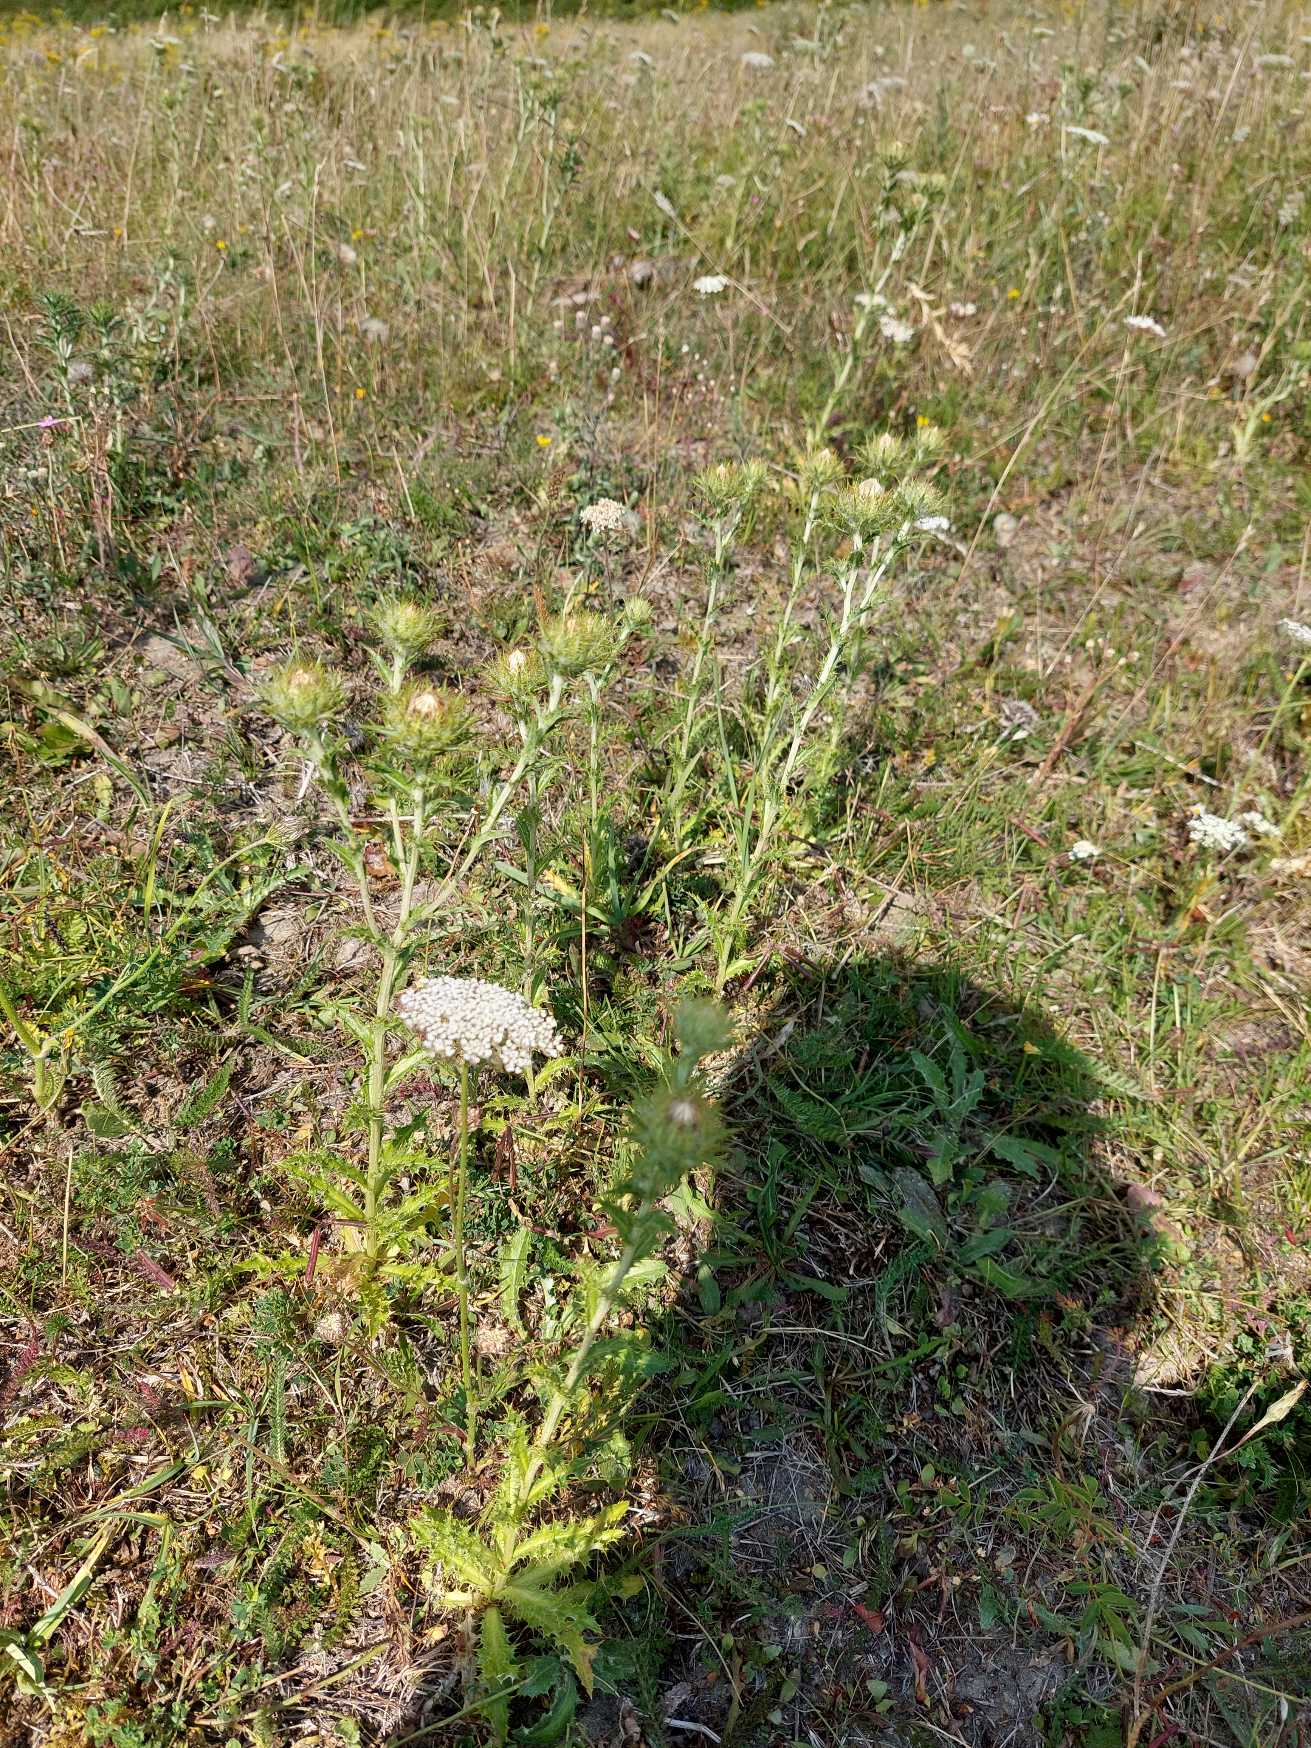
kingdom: Plantae
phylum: Tracheophyta
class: Magnoliopsida
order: Asterales
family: Asteraceae
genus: Carlina
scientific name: Carlina vulgaris
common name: Bakketidsel
